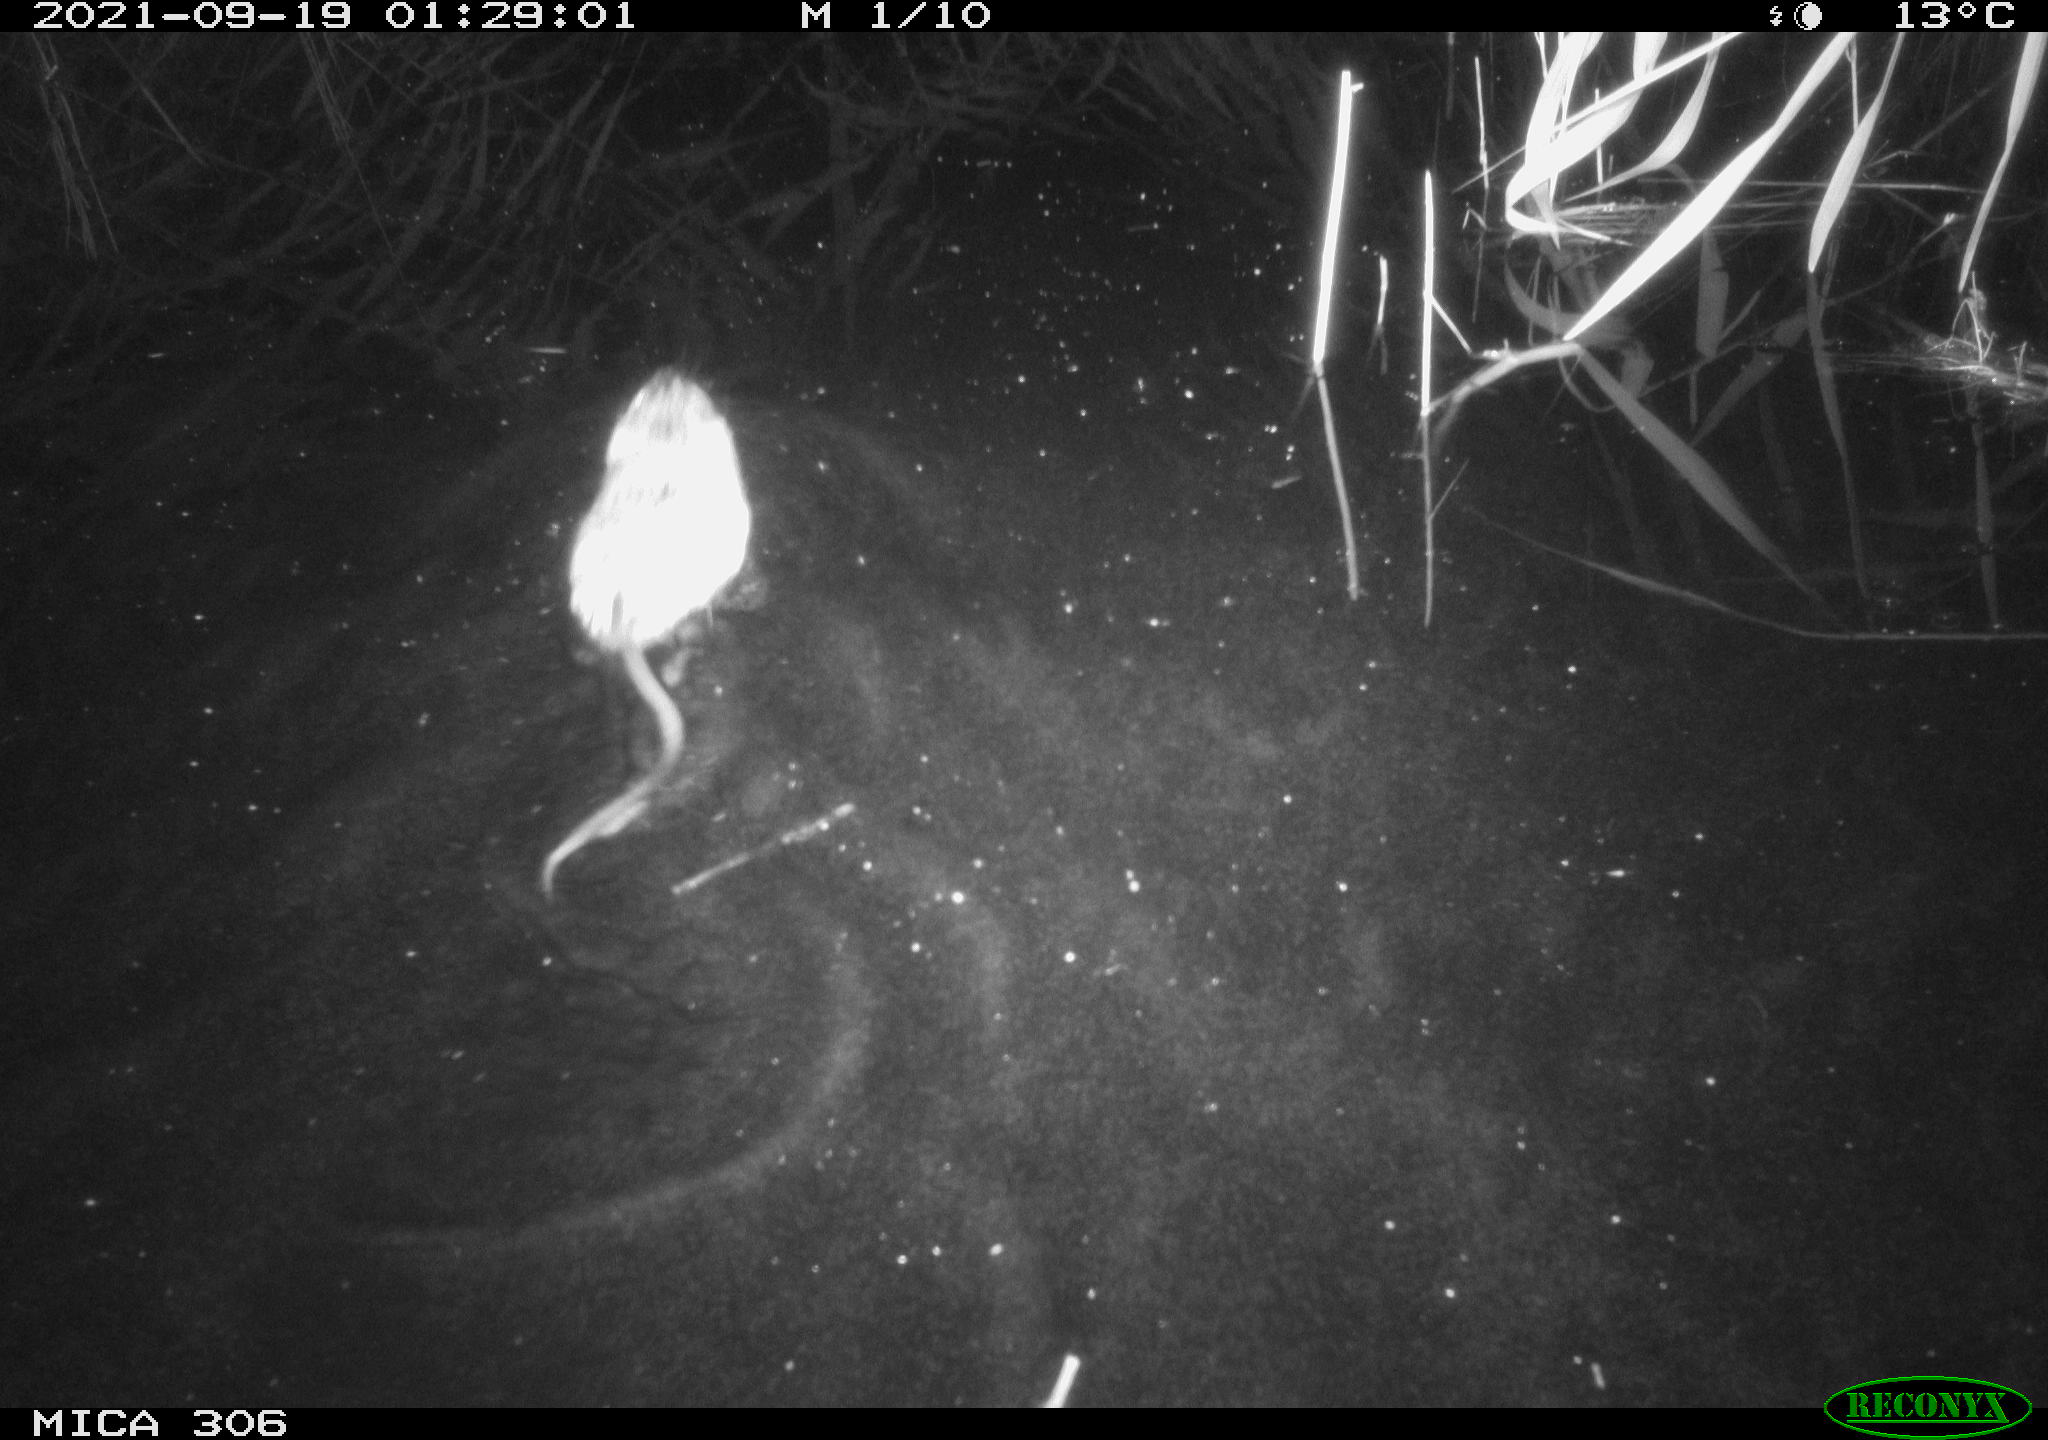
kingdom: Animalia
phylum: Chordata
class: Mammalia
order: Rodentia
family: Cricetidae
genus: Ondatra
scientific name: Ondatra zibethicus
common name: Muskrat
